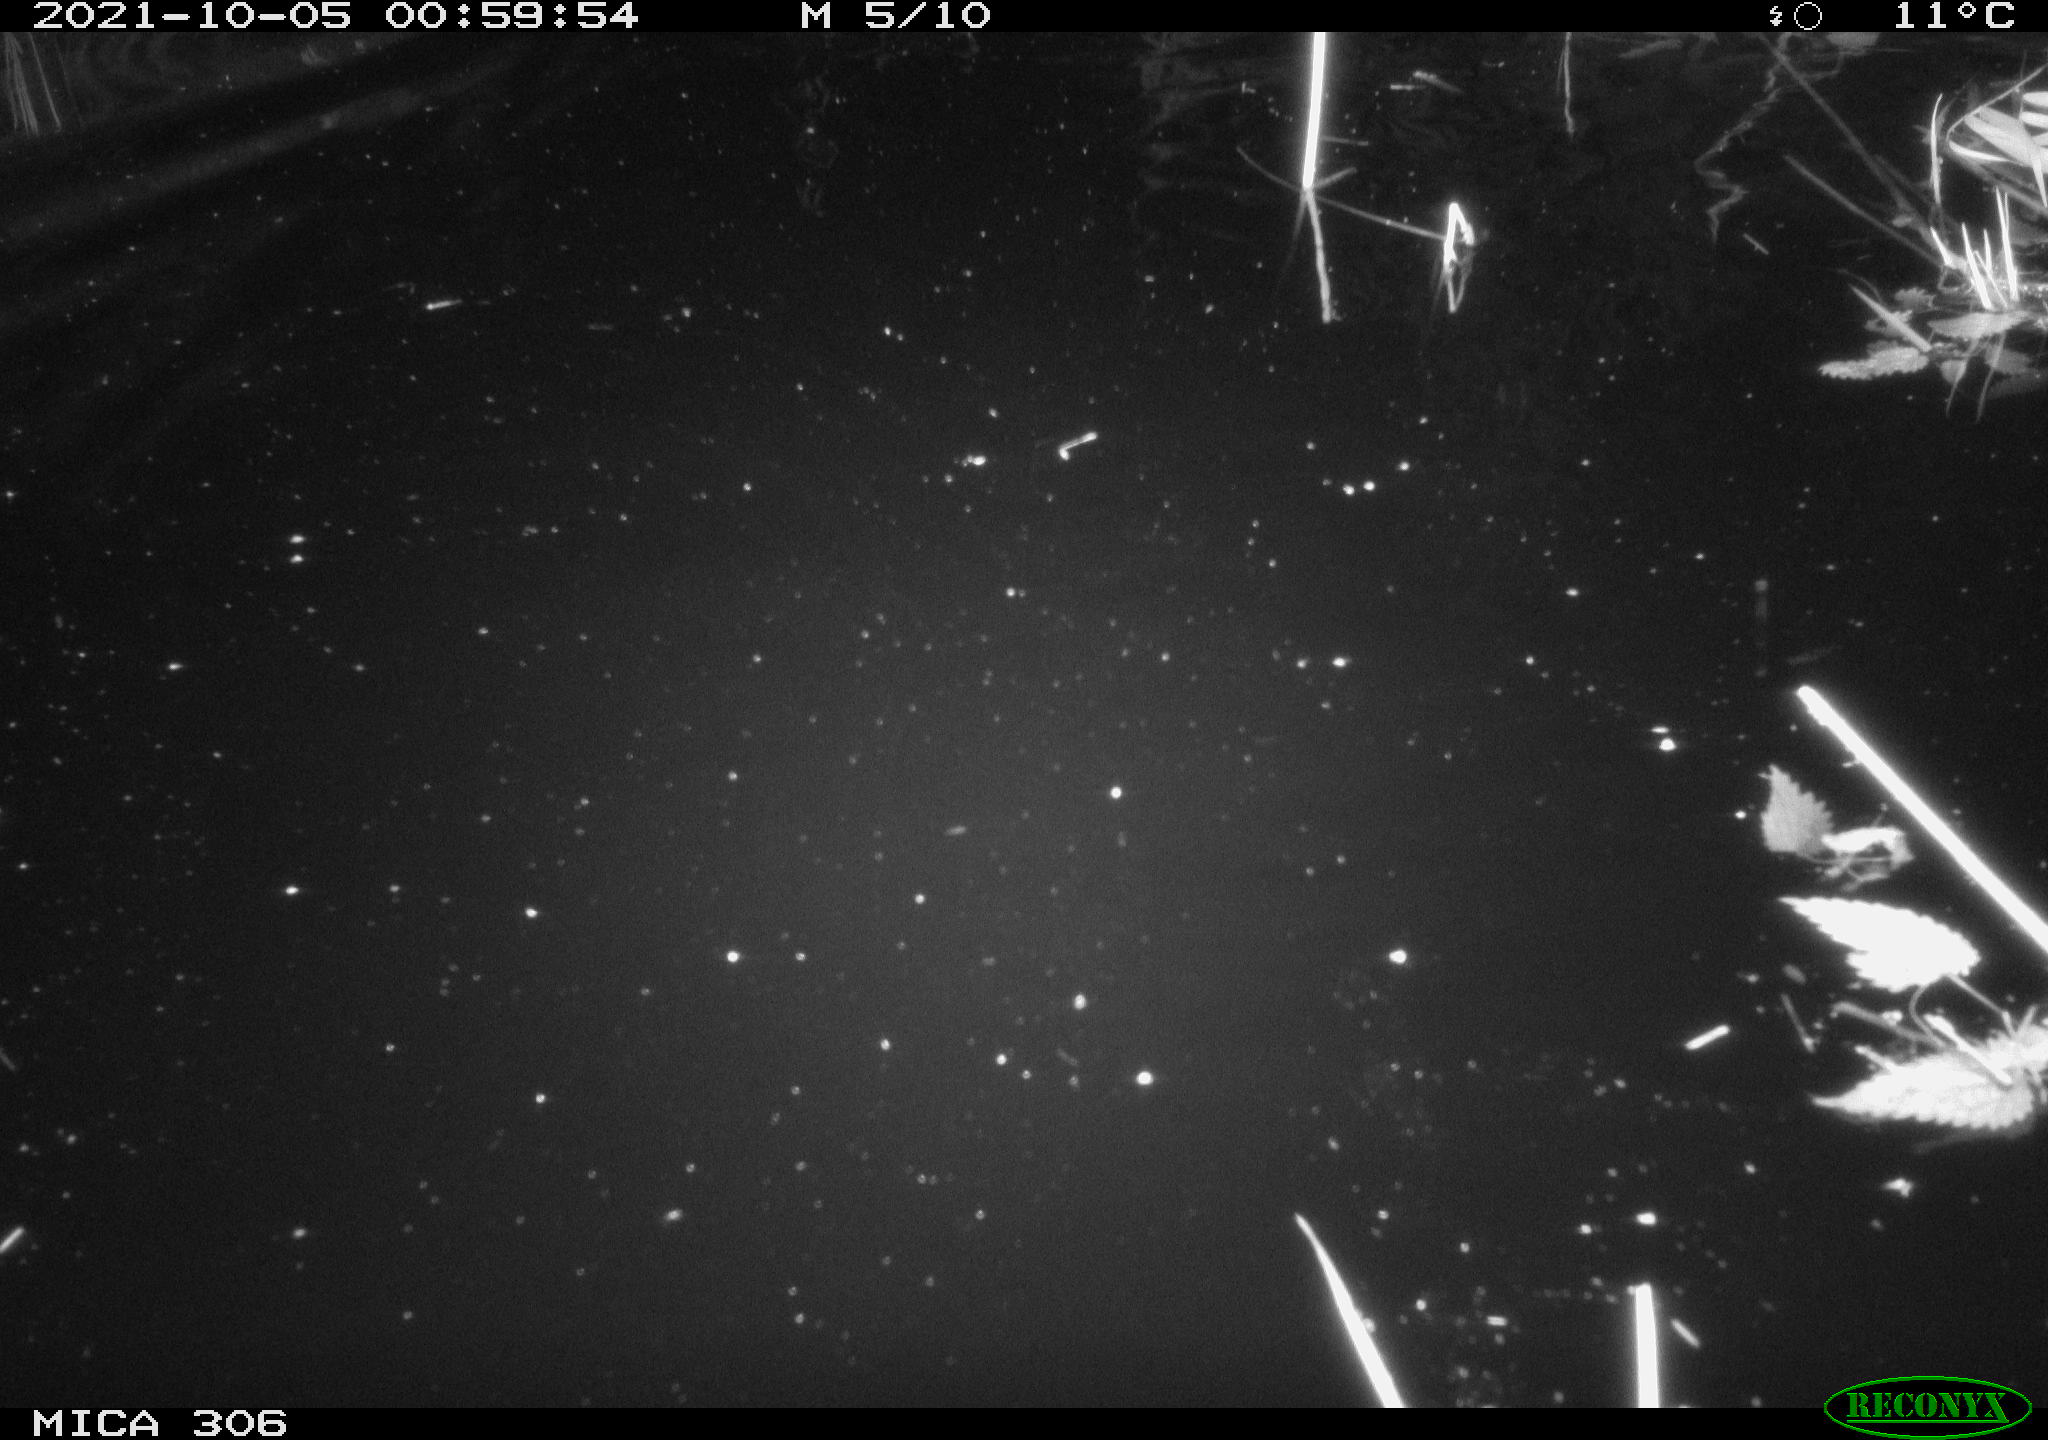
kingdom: Animalia
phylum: Chordata
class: Mammalia
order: Rodentia
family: Cricetidae
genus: Ondatra
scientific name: Ondatra zibethicus
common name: Muskrat
